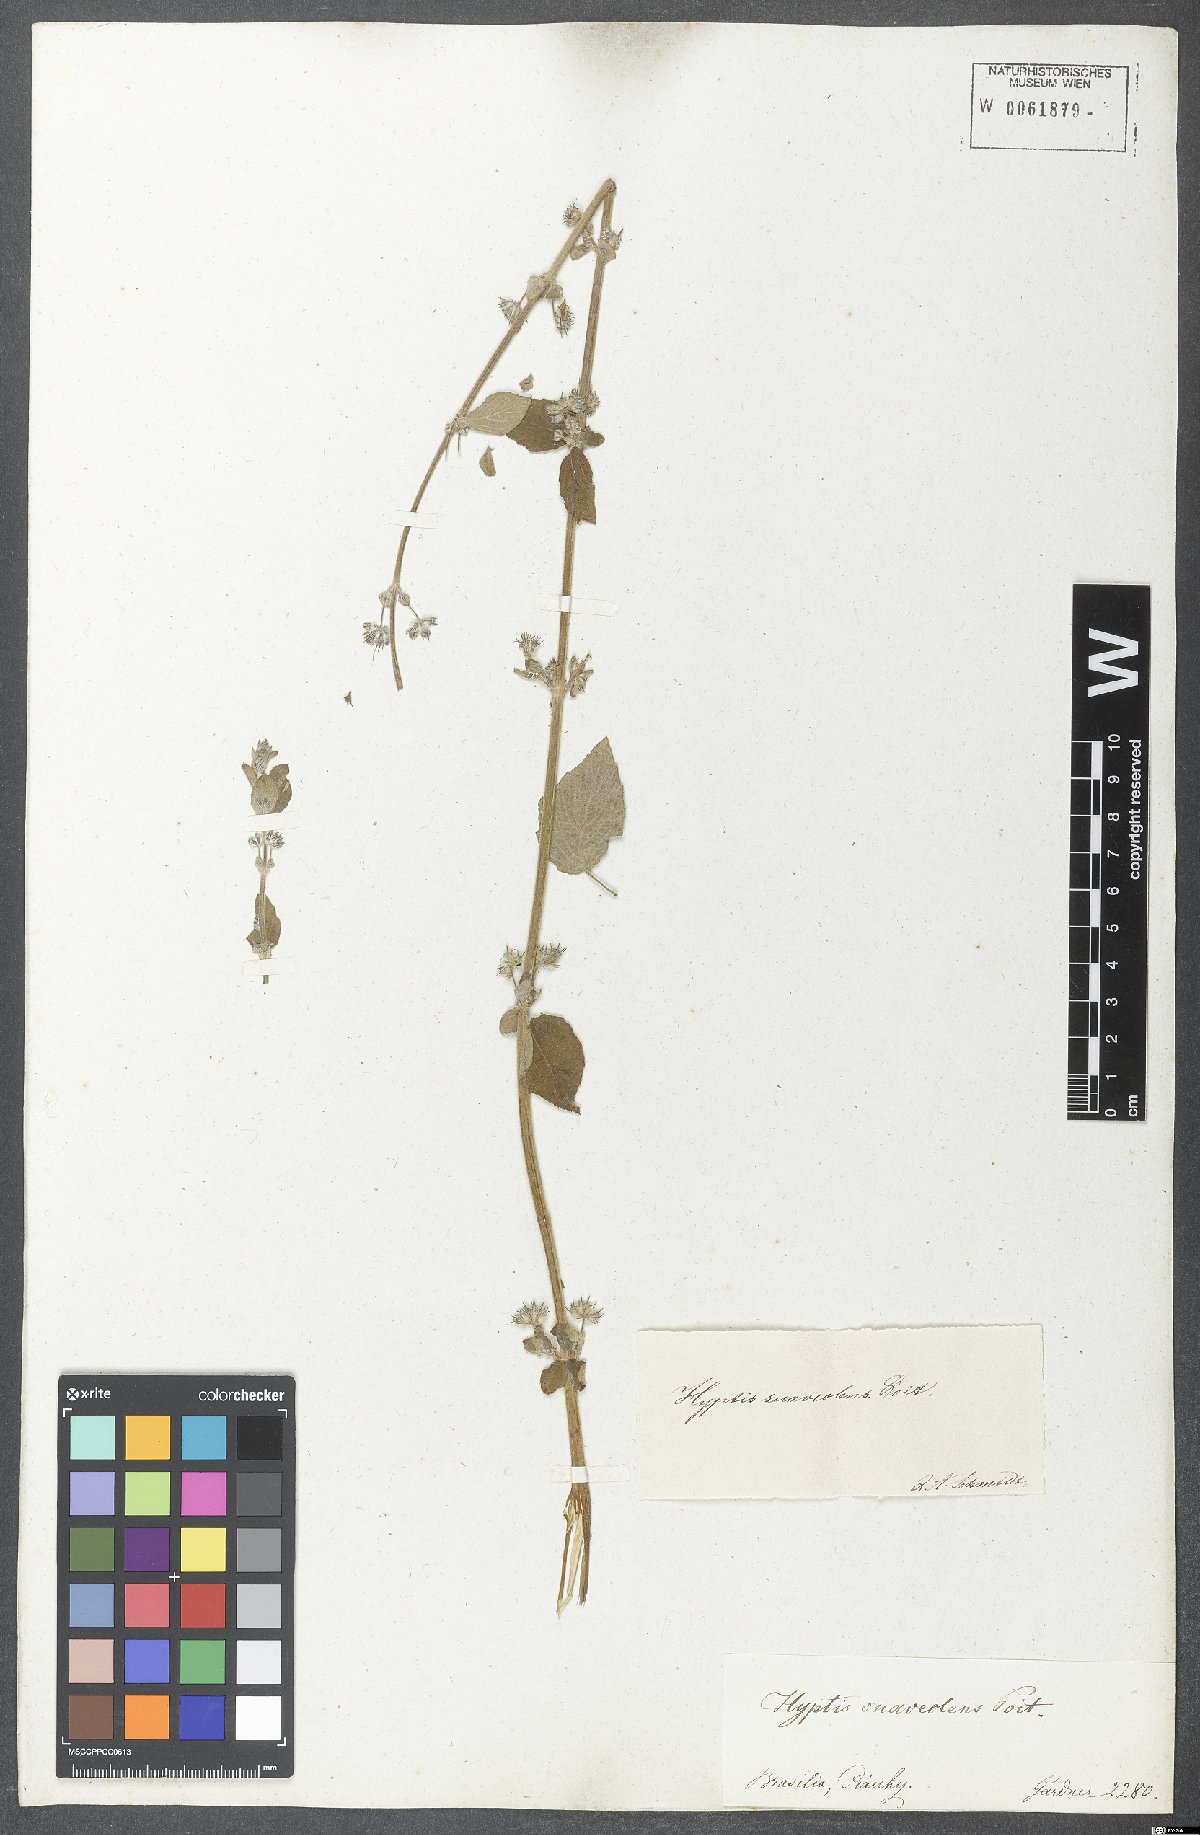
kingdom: Plantae
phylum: Tracheophyta
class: Magnoliopsida
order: Lamiales
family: Lamiaceae
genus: Mesosphaerum
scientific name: Mesosphaerum suaveolens
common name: Pignut
